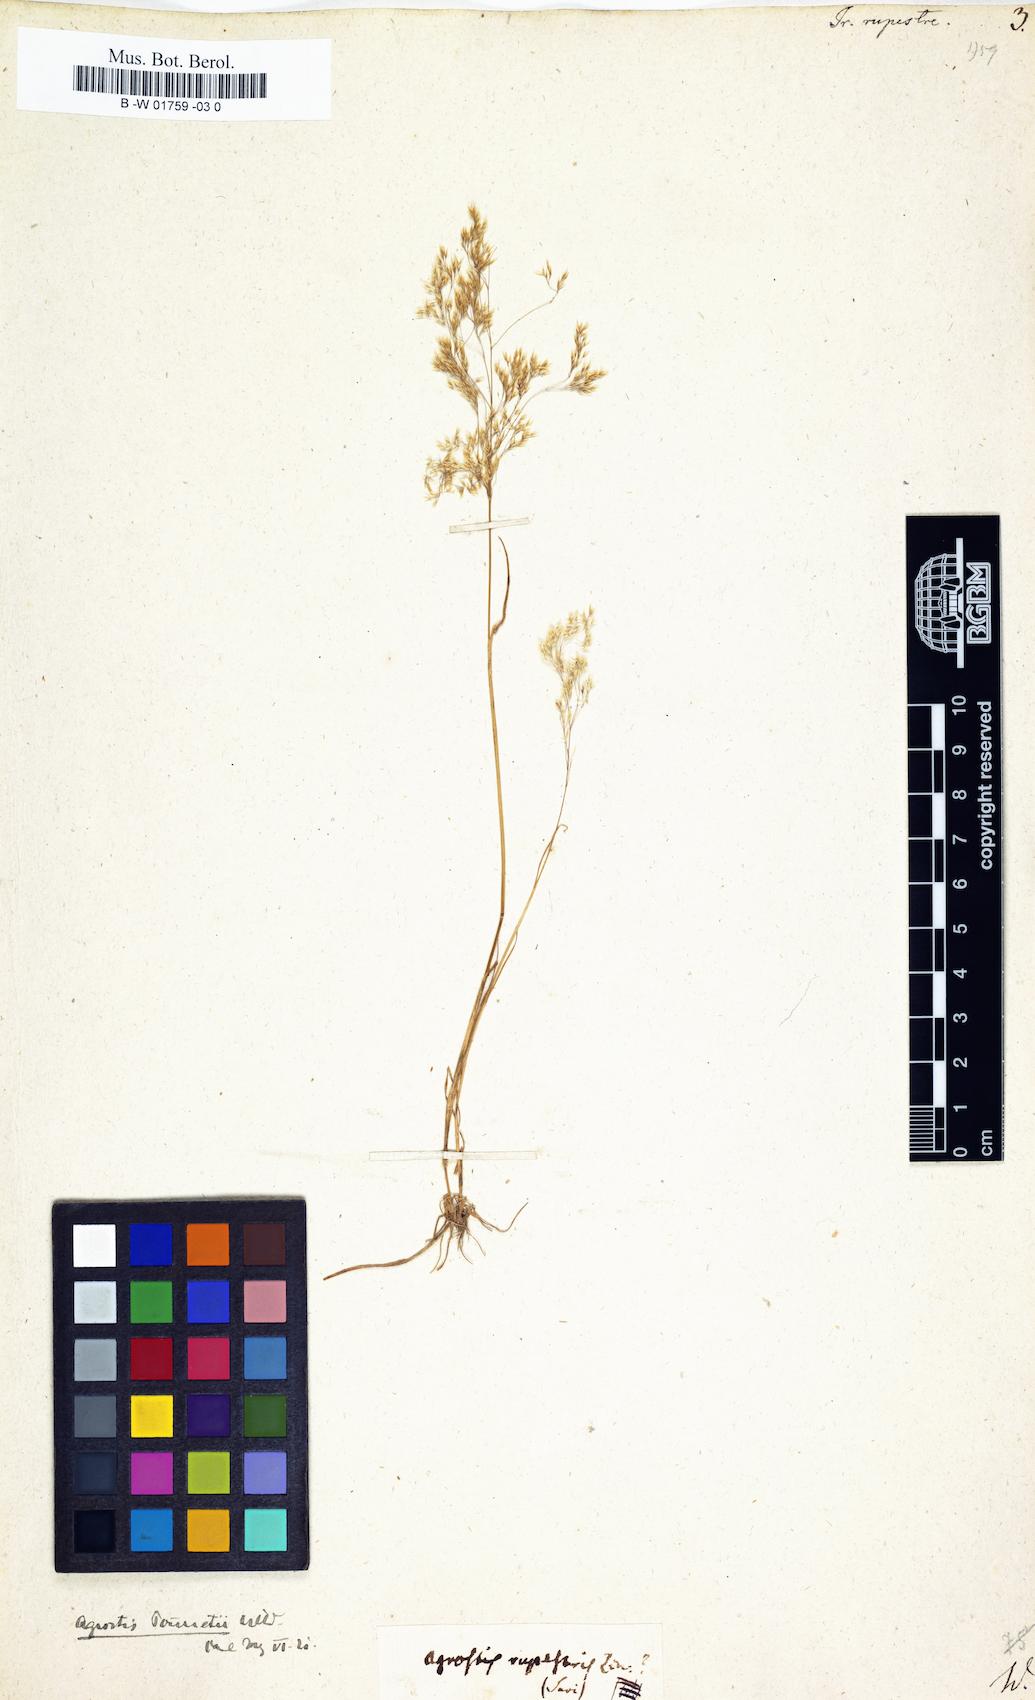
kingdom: Plantae
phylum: Tracheophyta
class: Liliopsida
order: Poales
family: Poaceae
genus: Alpagrostis
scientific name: Alpagrostis alpina
